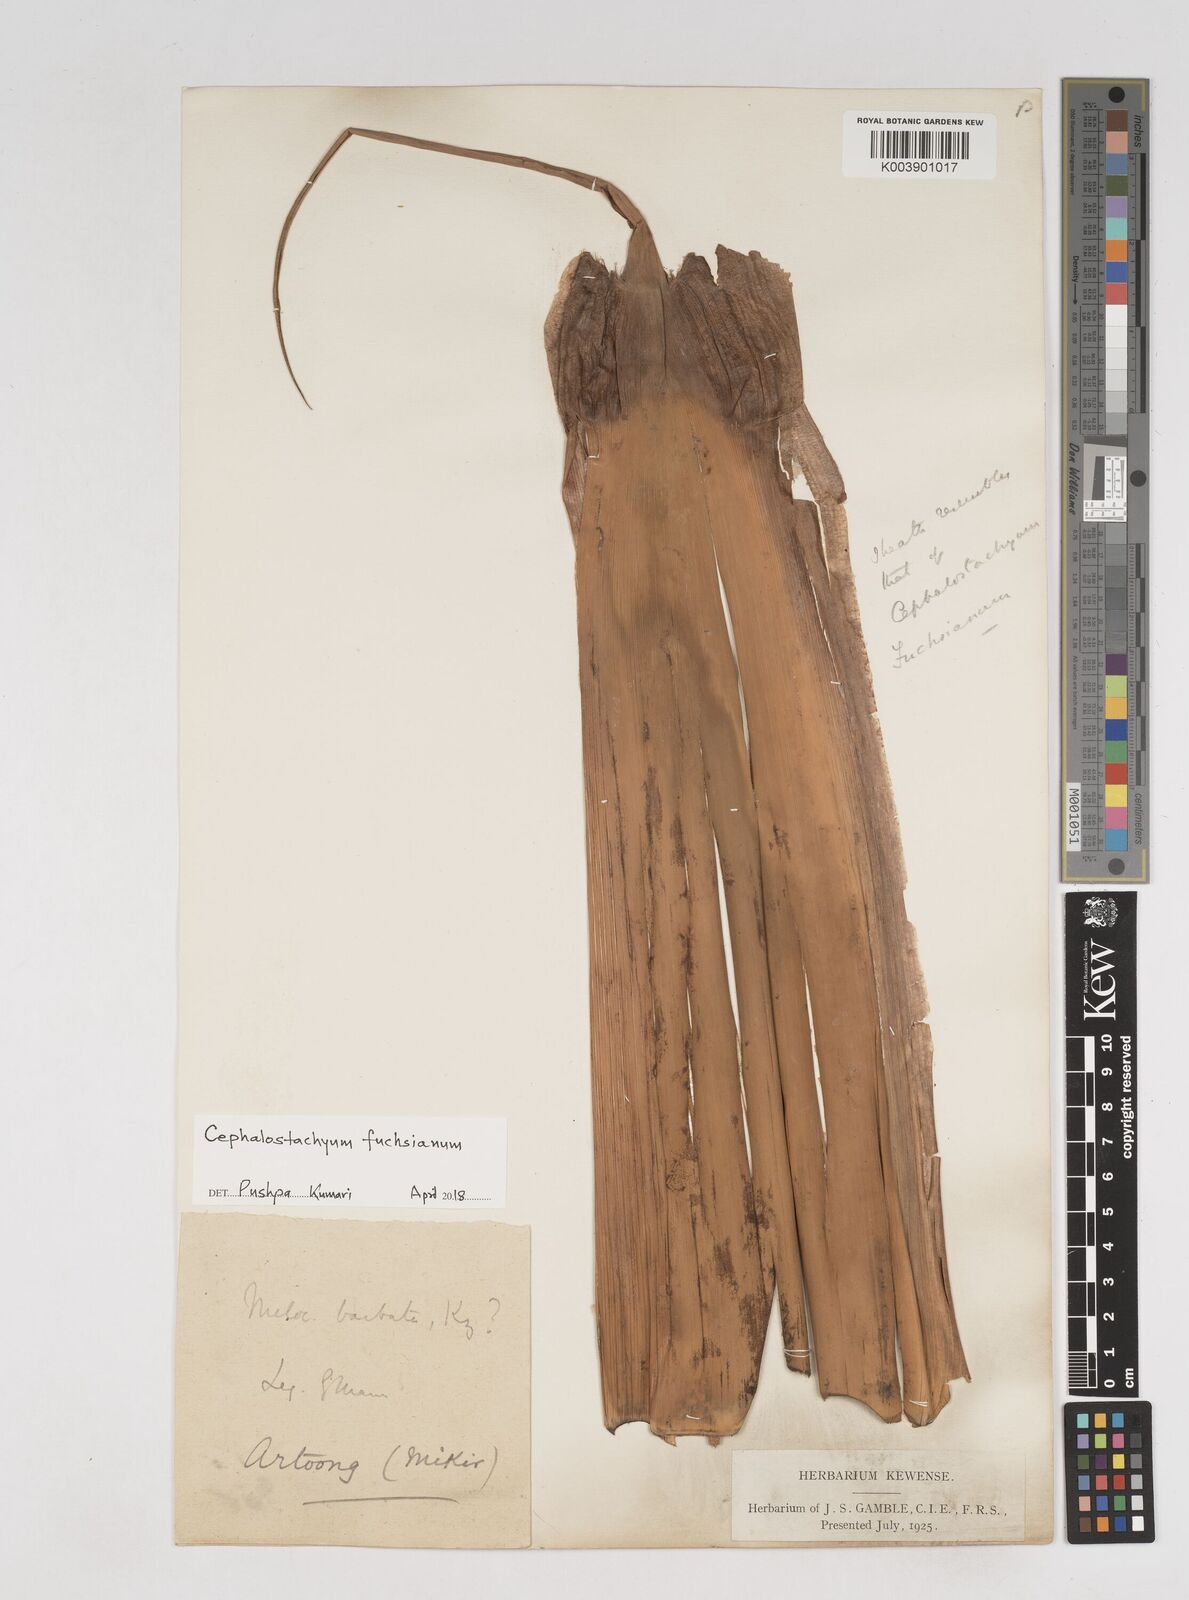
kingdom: Plantae
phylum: Tracheophyta
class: Liliopsida
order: Poales
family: Poaceae
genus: Cephalostachyum
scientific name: Cephalostachyum latifolium
